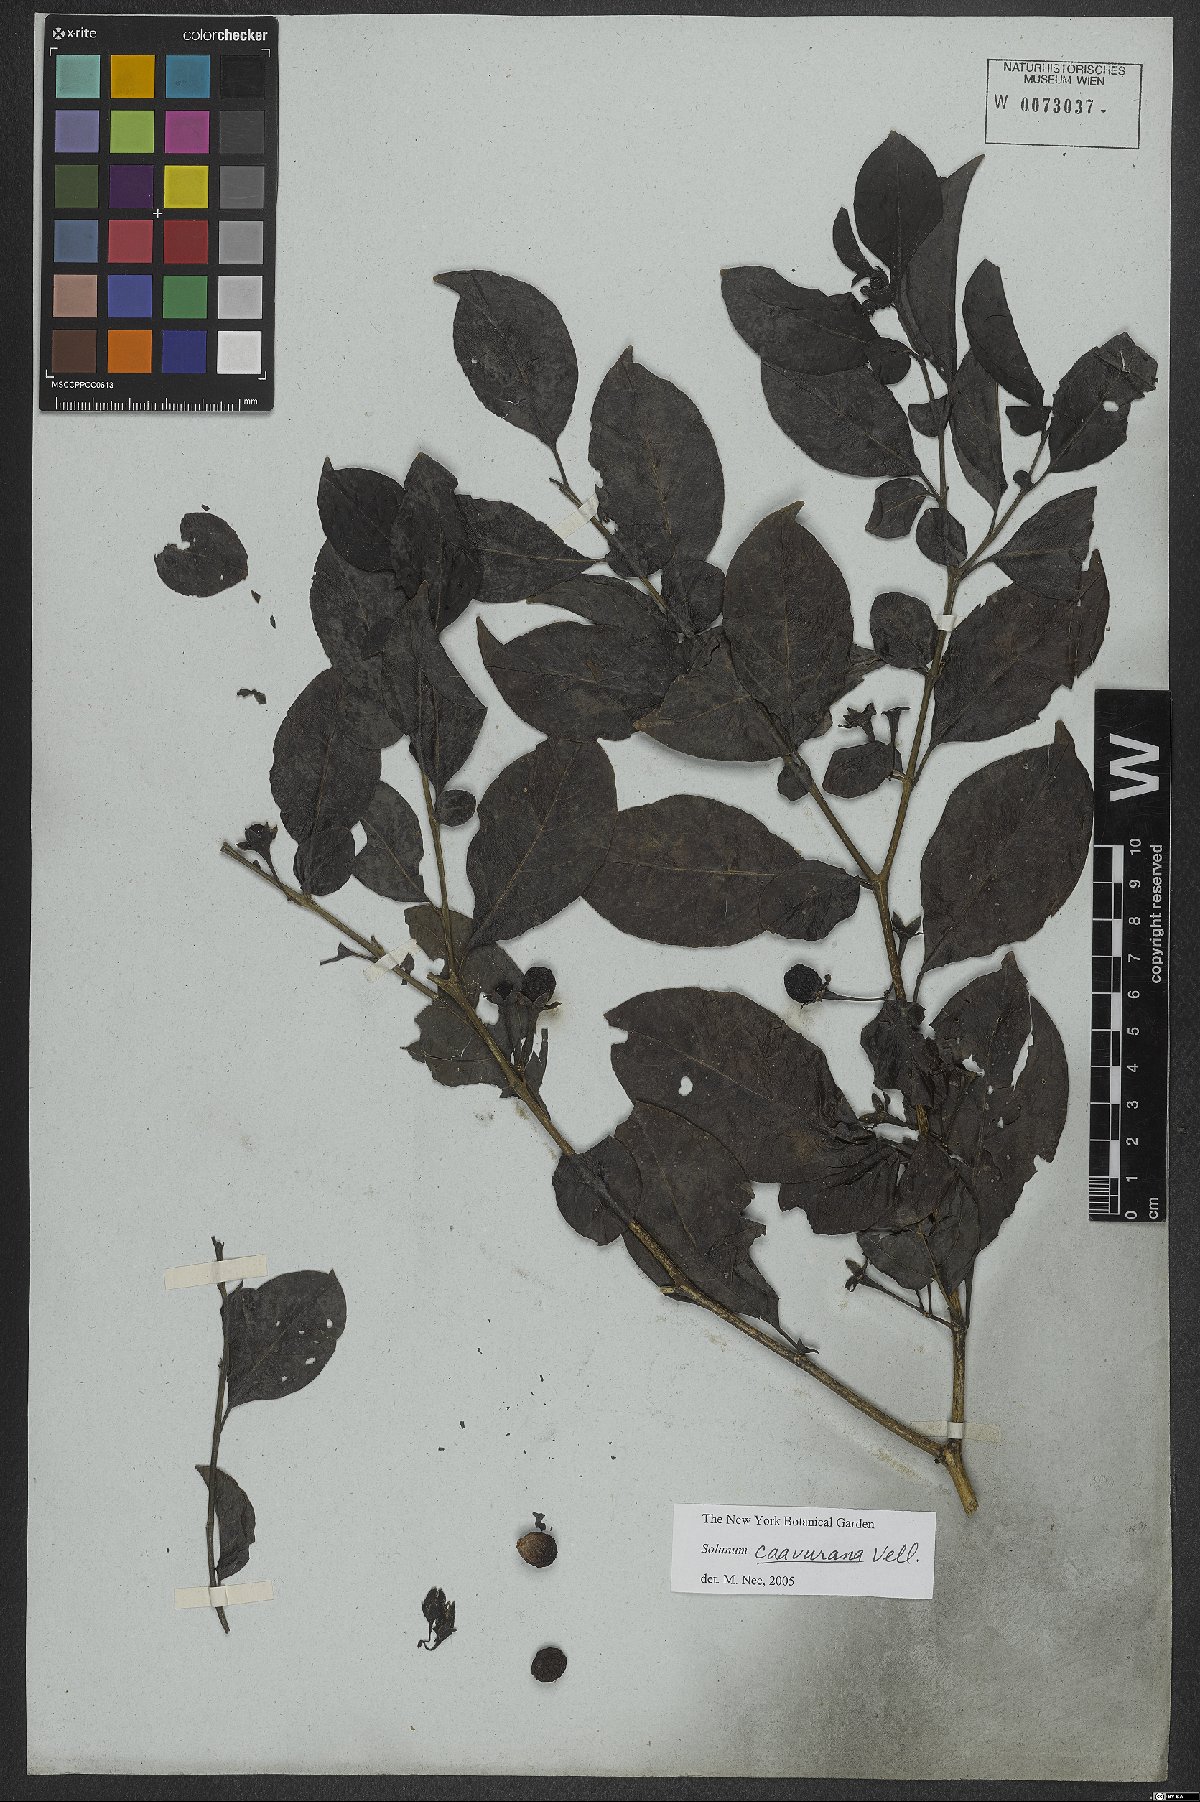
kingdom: Plantae
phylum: Tracheophyta
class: Magnoliopsida
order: Solanales
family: Solanaceae
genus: Solanum
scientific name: Solanum caavurana
